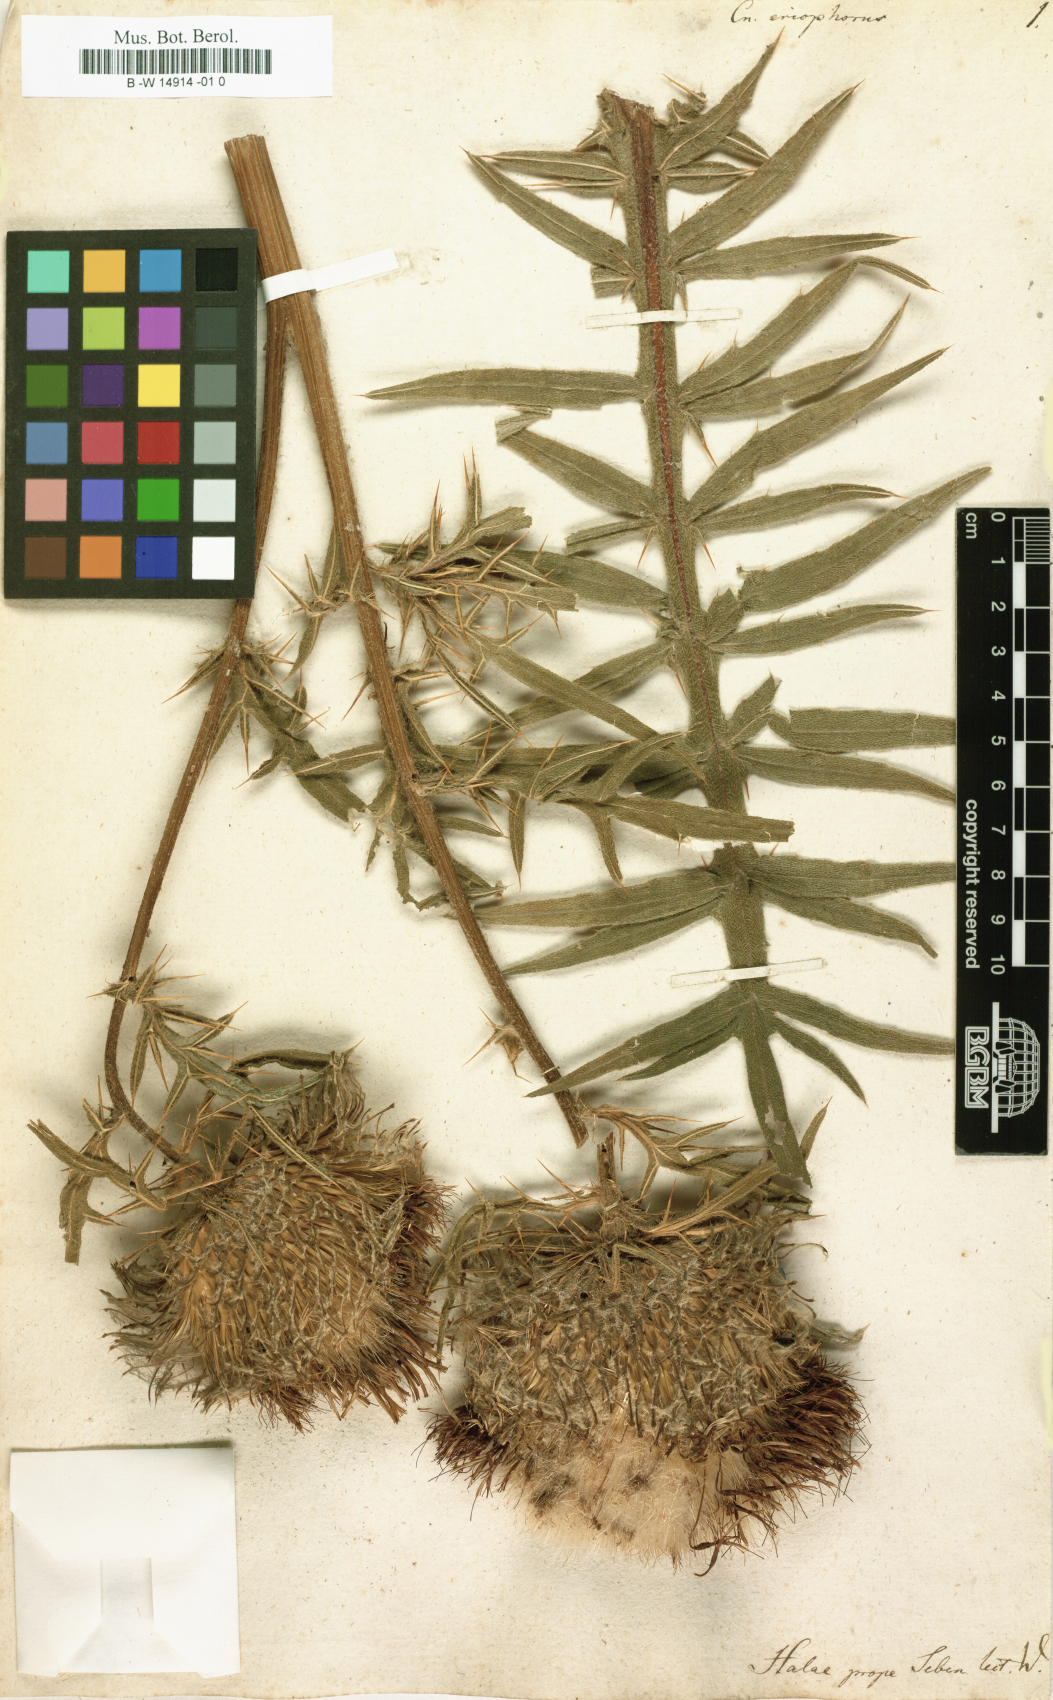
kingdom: Plantae
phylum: Tracheophyta
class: Magnoliopsida
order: Asterales
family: Asteraceae
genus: Lophiolepis
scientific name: Lophiolepis
